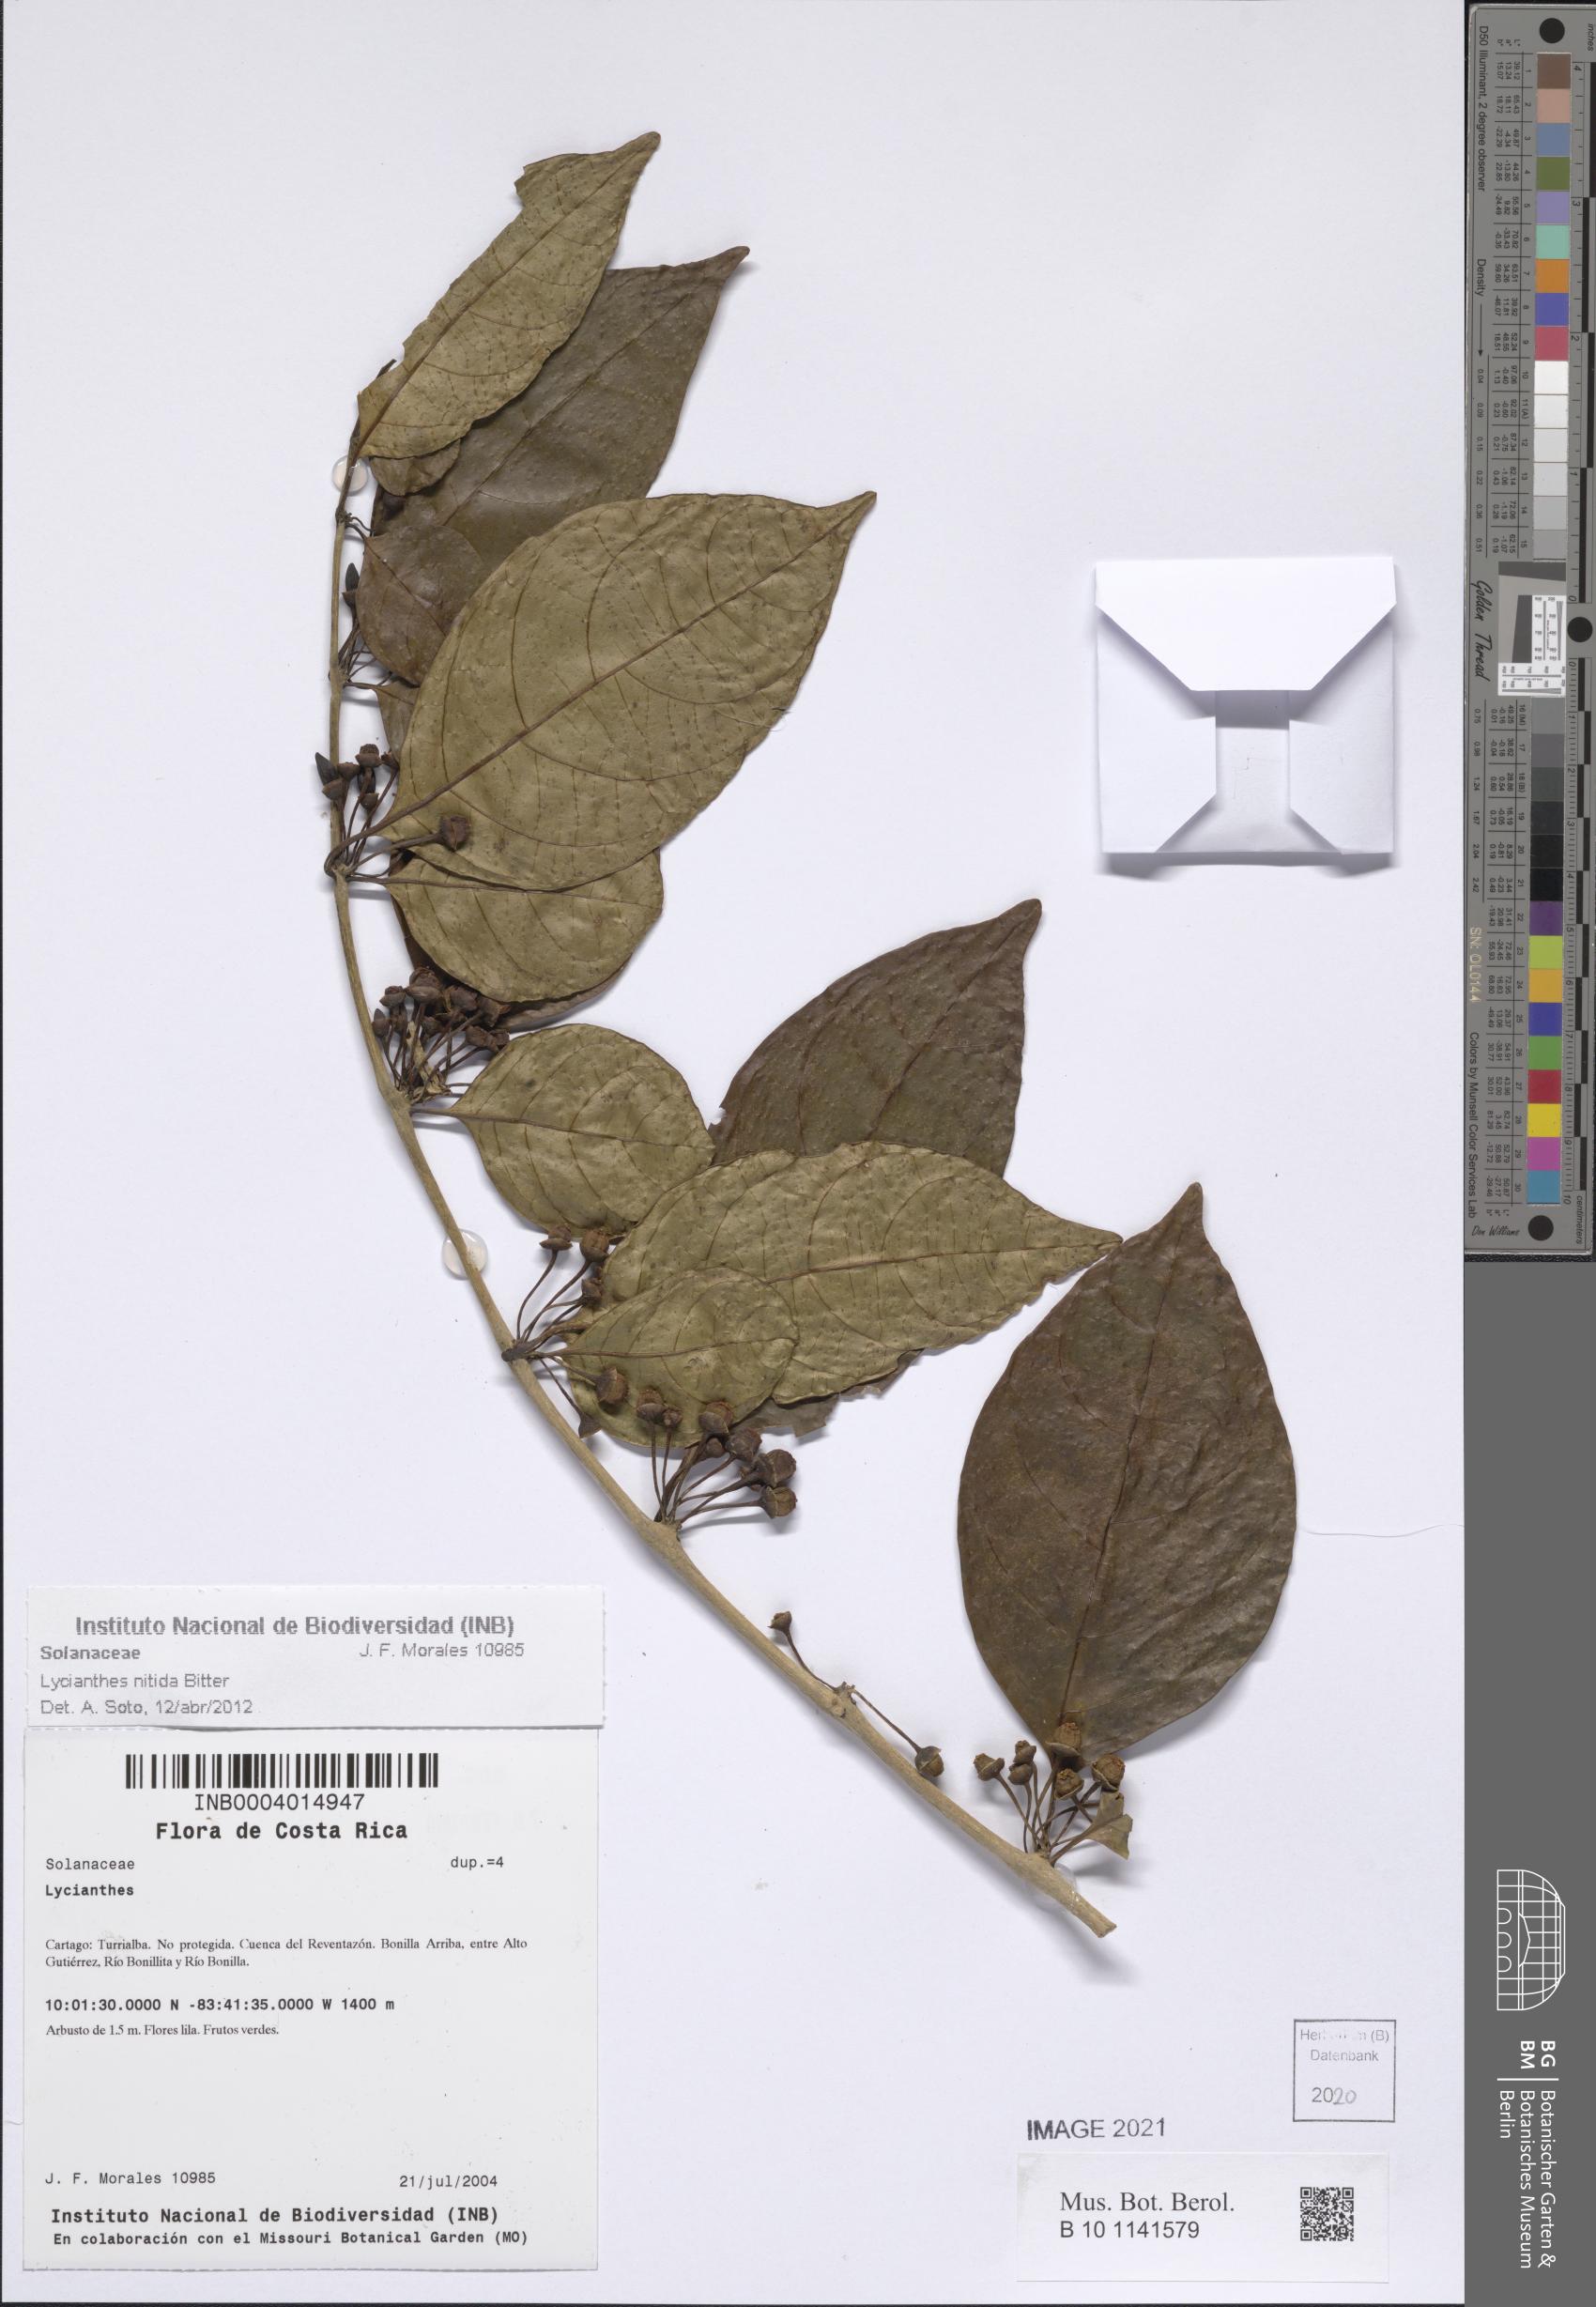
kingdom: Plantae
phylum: Tracheophyta
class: Magnoliopsida
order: Solanales
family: Solanaceae
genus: Lycianthes
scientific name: Lycianthes nitida
